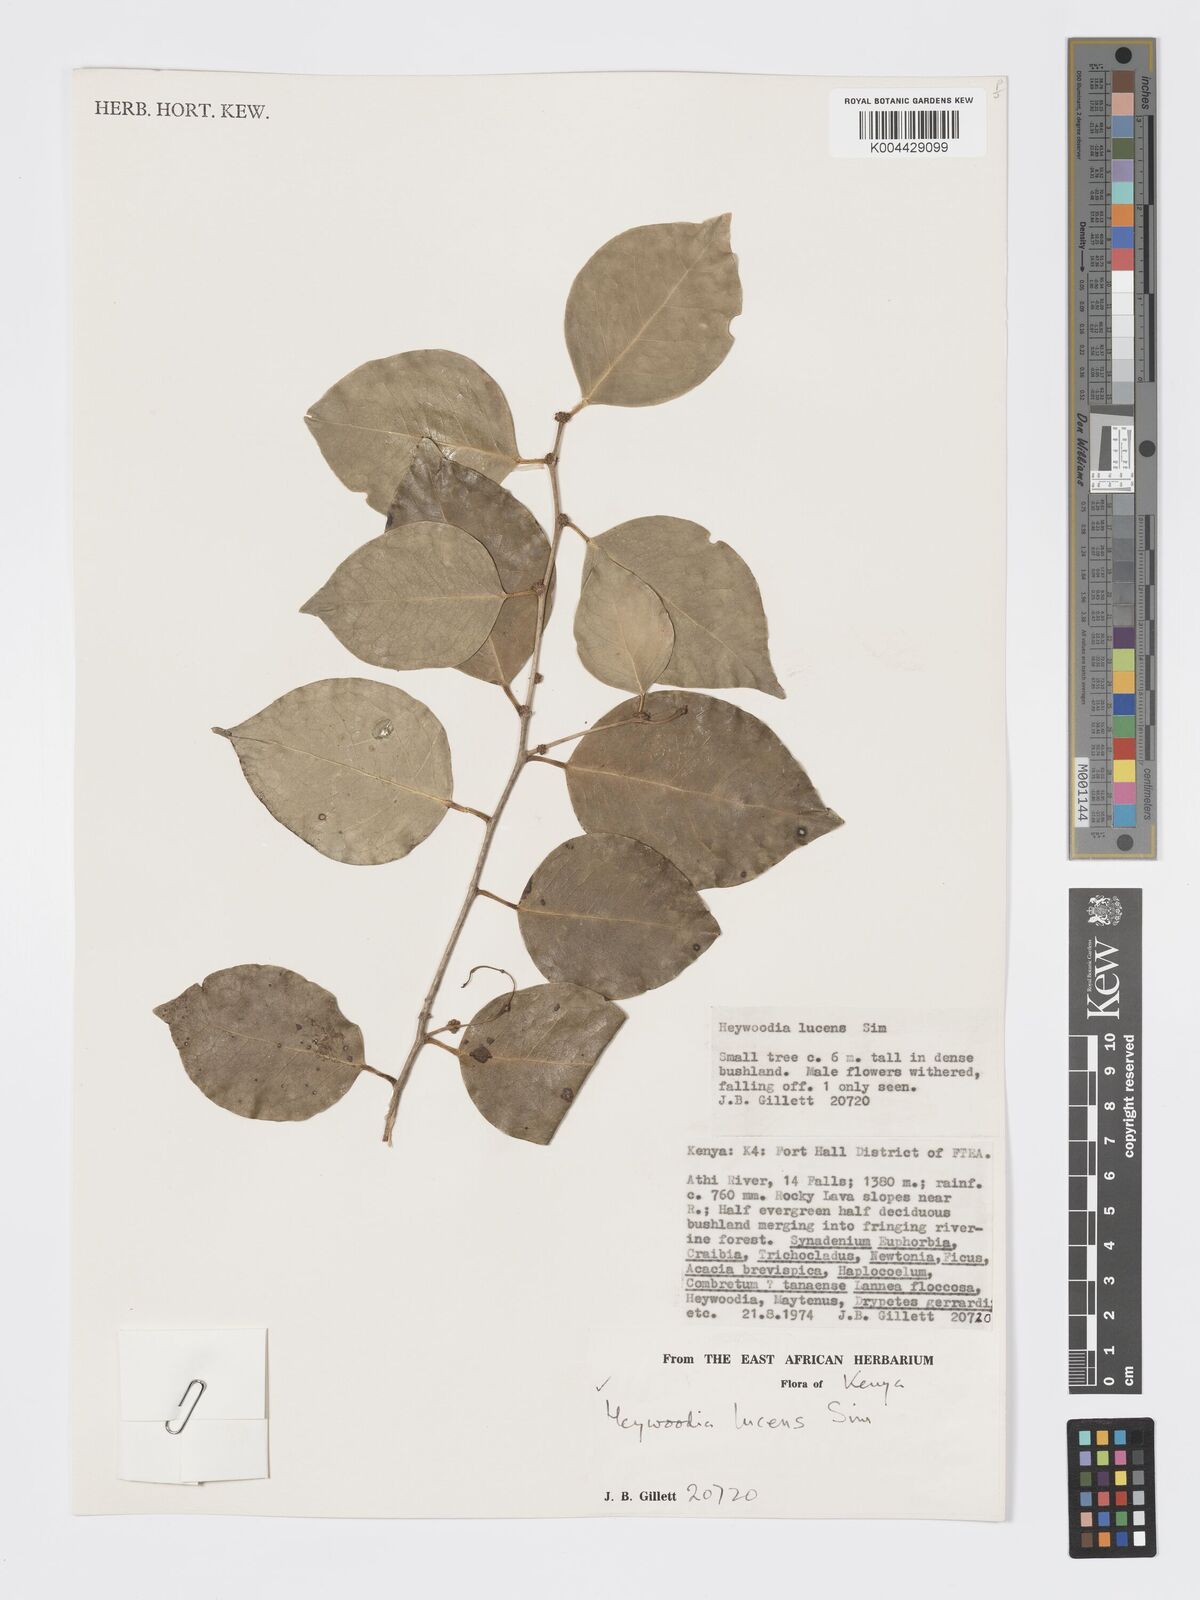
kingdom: Plantae
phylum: Tracheophyta
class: Magnoliopsida
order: Malpighiales
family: Phyllanthaceae
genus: Heywoodia
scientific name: Heywoodia lucens
